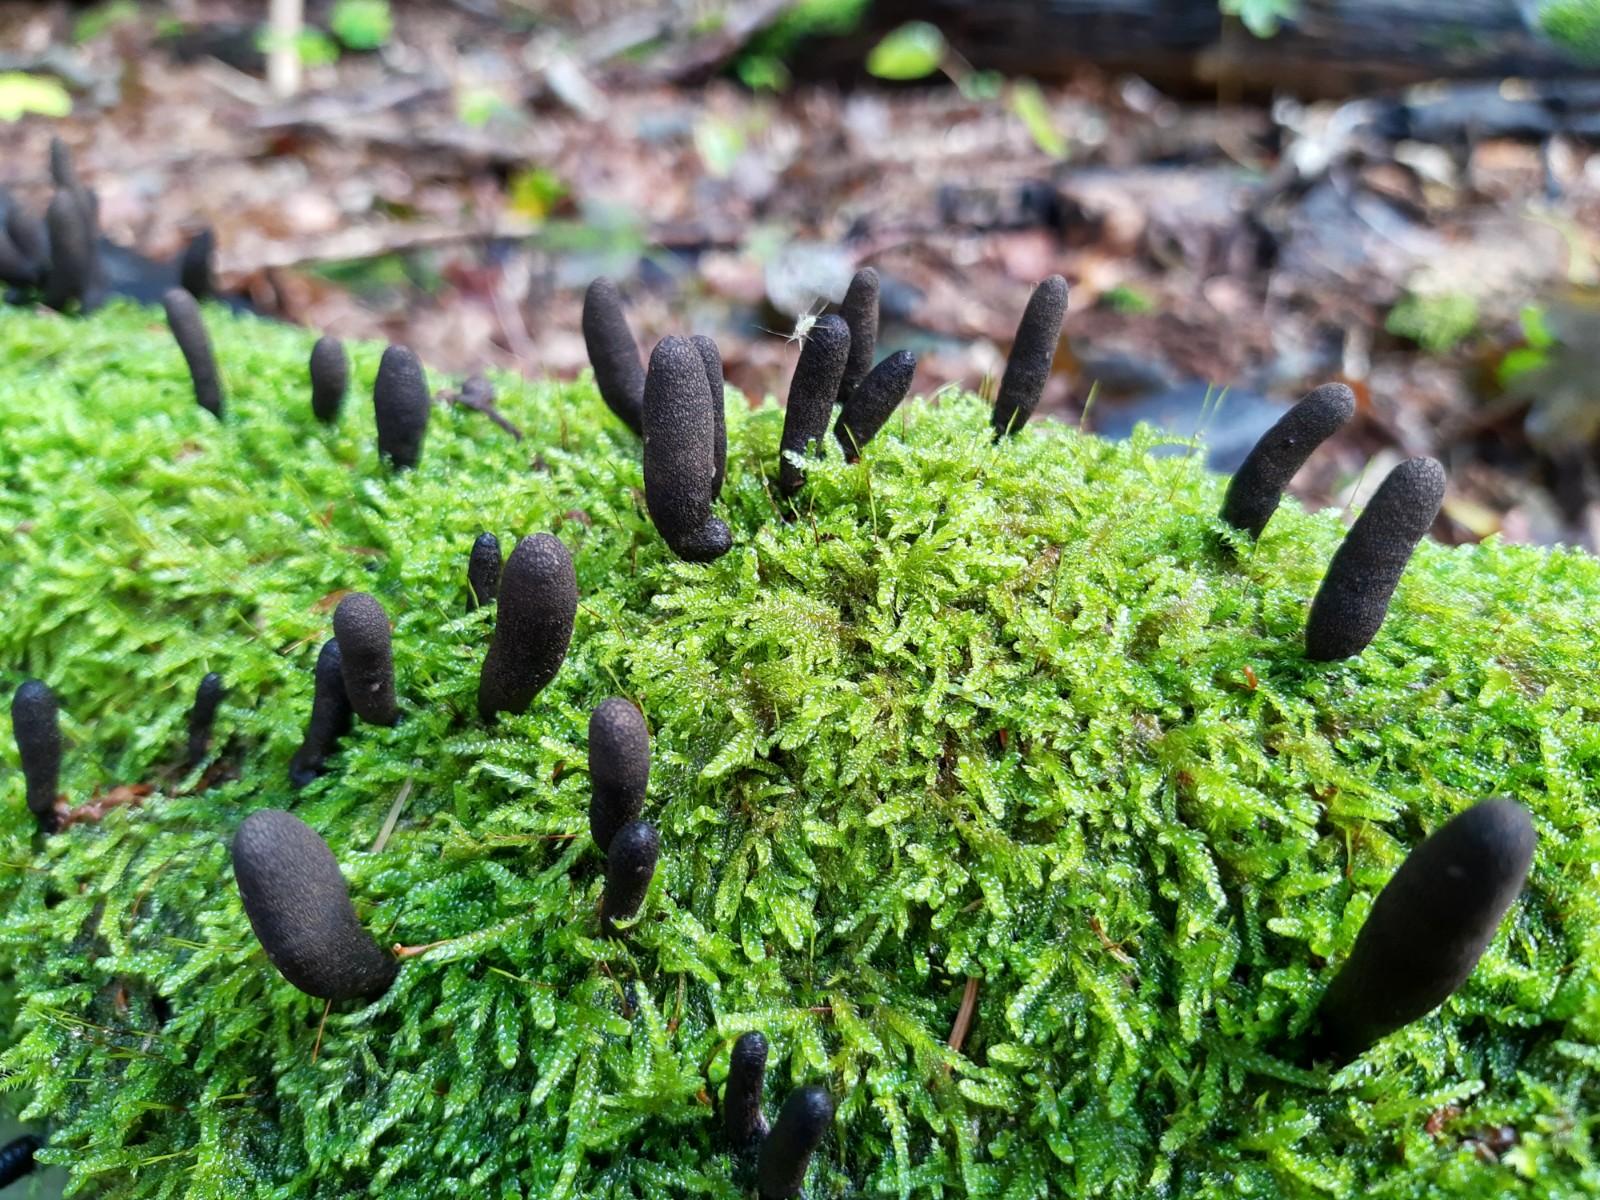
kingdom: Fungi
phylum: Ascomycota
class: Sordariomycetes
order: Xylariales
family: Xylariaceae
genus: Xylaria
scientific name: Xylaria polymorpha
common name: kølle-stødsvamp
